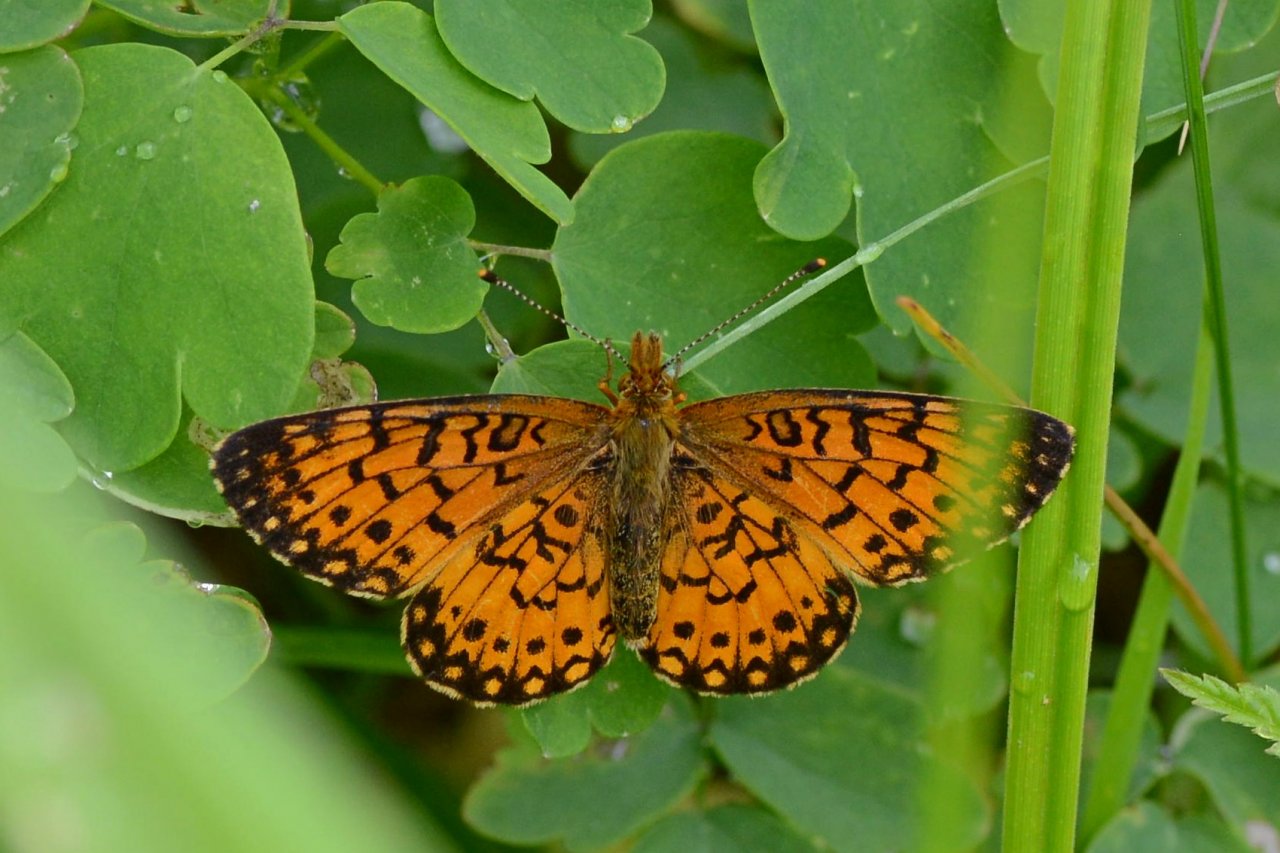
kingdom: Animalia
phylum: Arthropoda
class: Insecta
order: Lepidoptera
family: Nymphalidae
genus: Boloria
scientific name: Boloria selene
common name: Silver-bordered Fritillary
